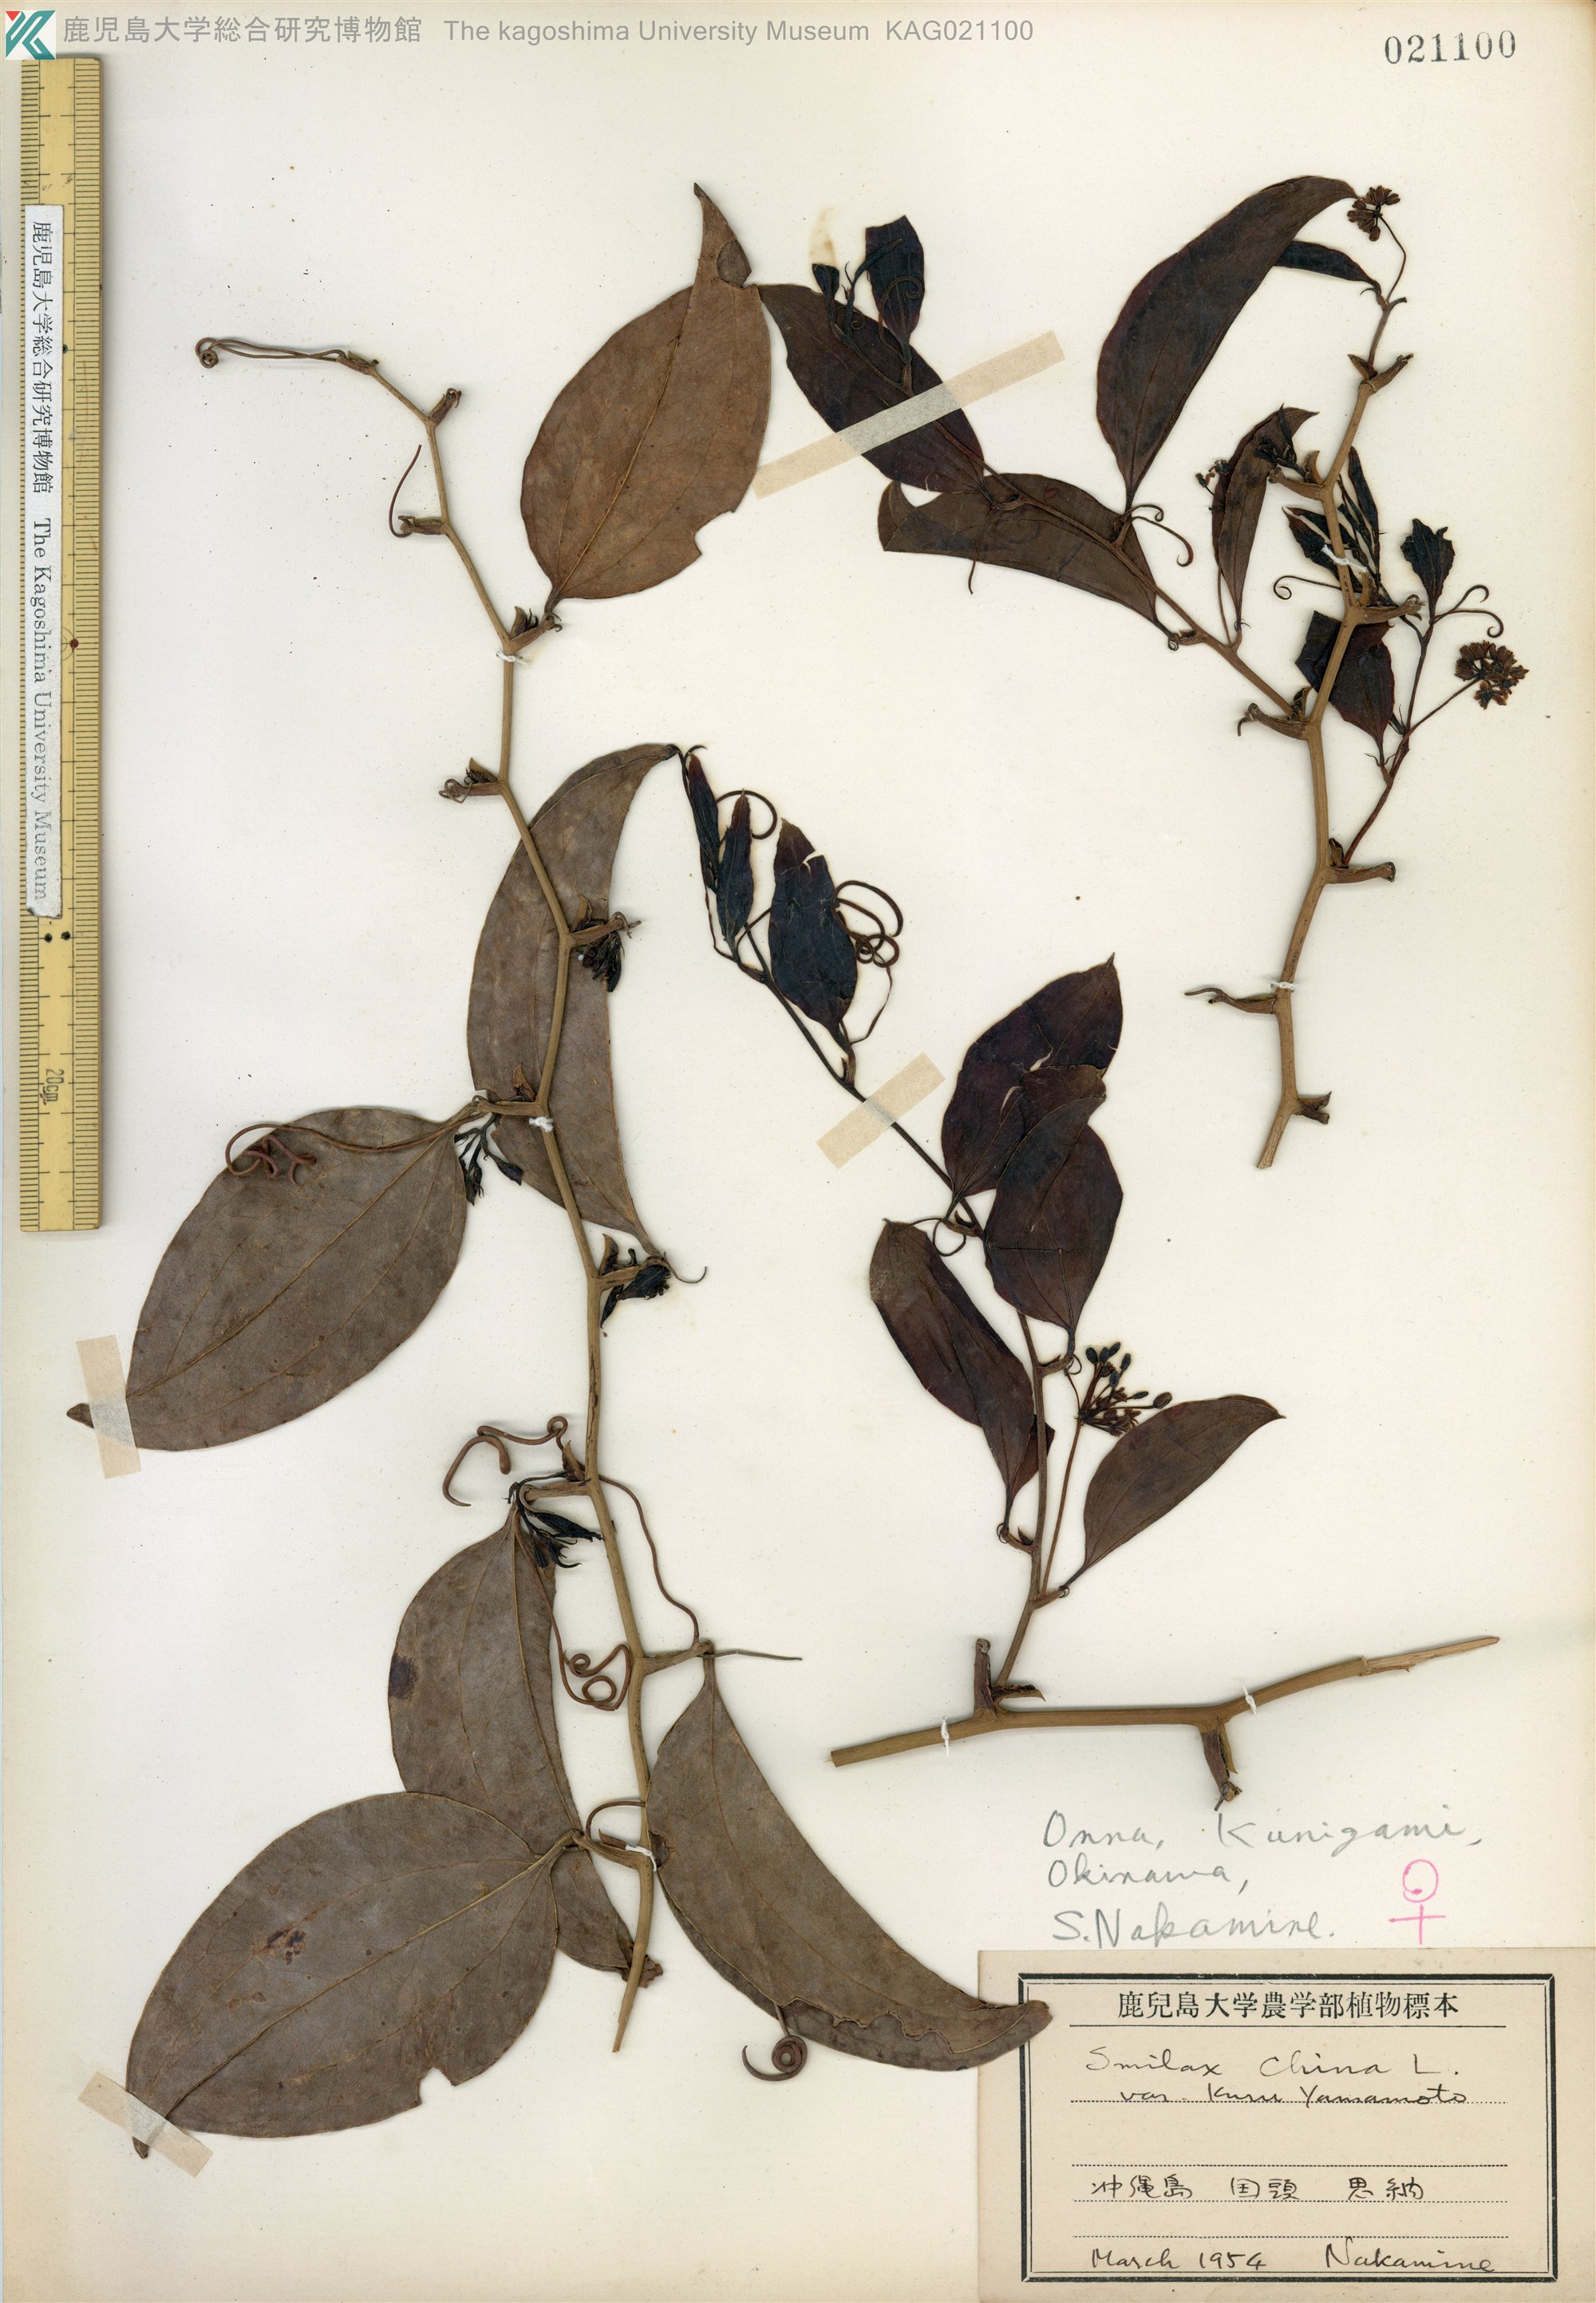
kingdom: Plantae
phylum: Tracheophyta
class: Liliopsida
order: Liliales
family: Smilacaceae
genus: Smilax
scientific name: Smilax china
